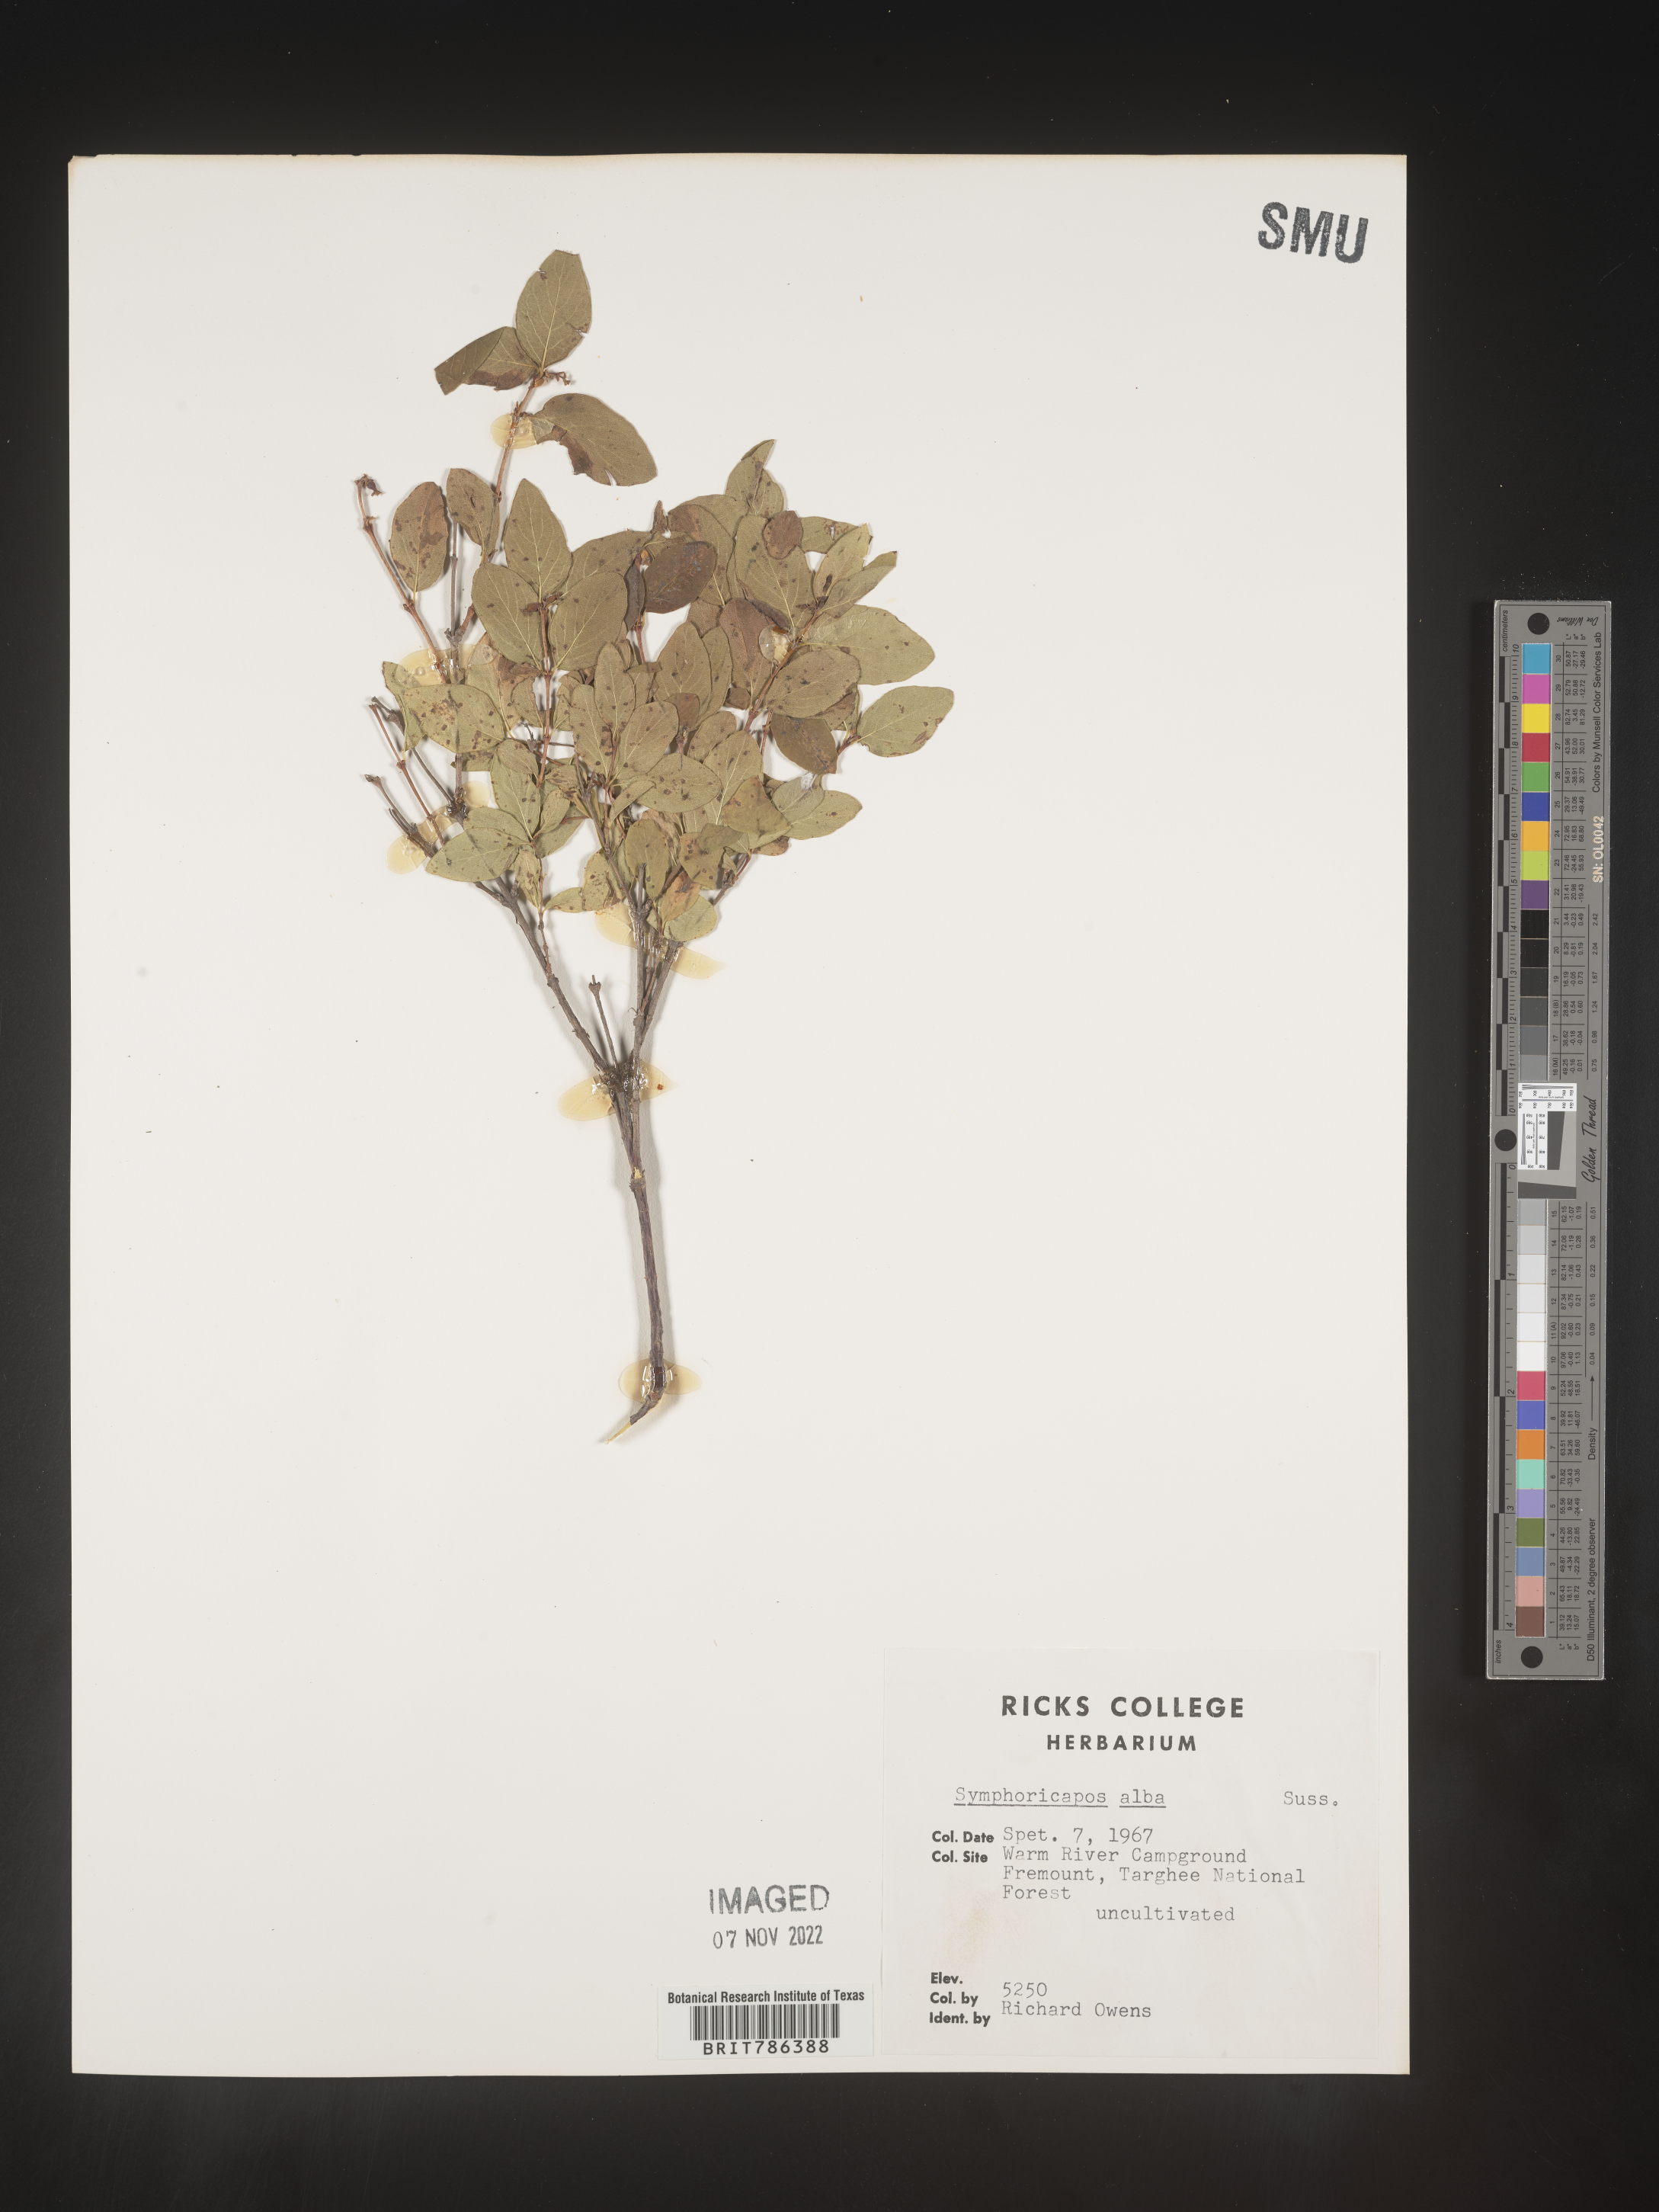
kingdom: Plantae
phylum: Tracheophyta
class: Magnoliopsida
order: Dipsacales
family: Caprifoliaceae
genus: Symphoricarpos
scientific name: Symphoricarpos albus
